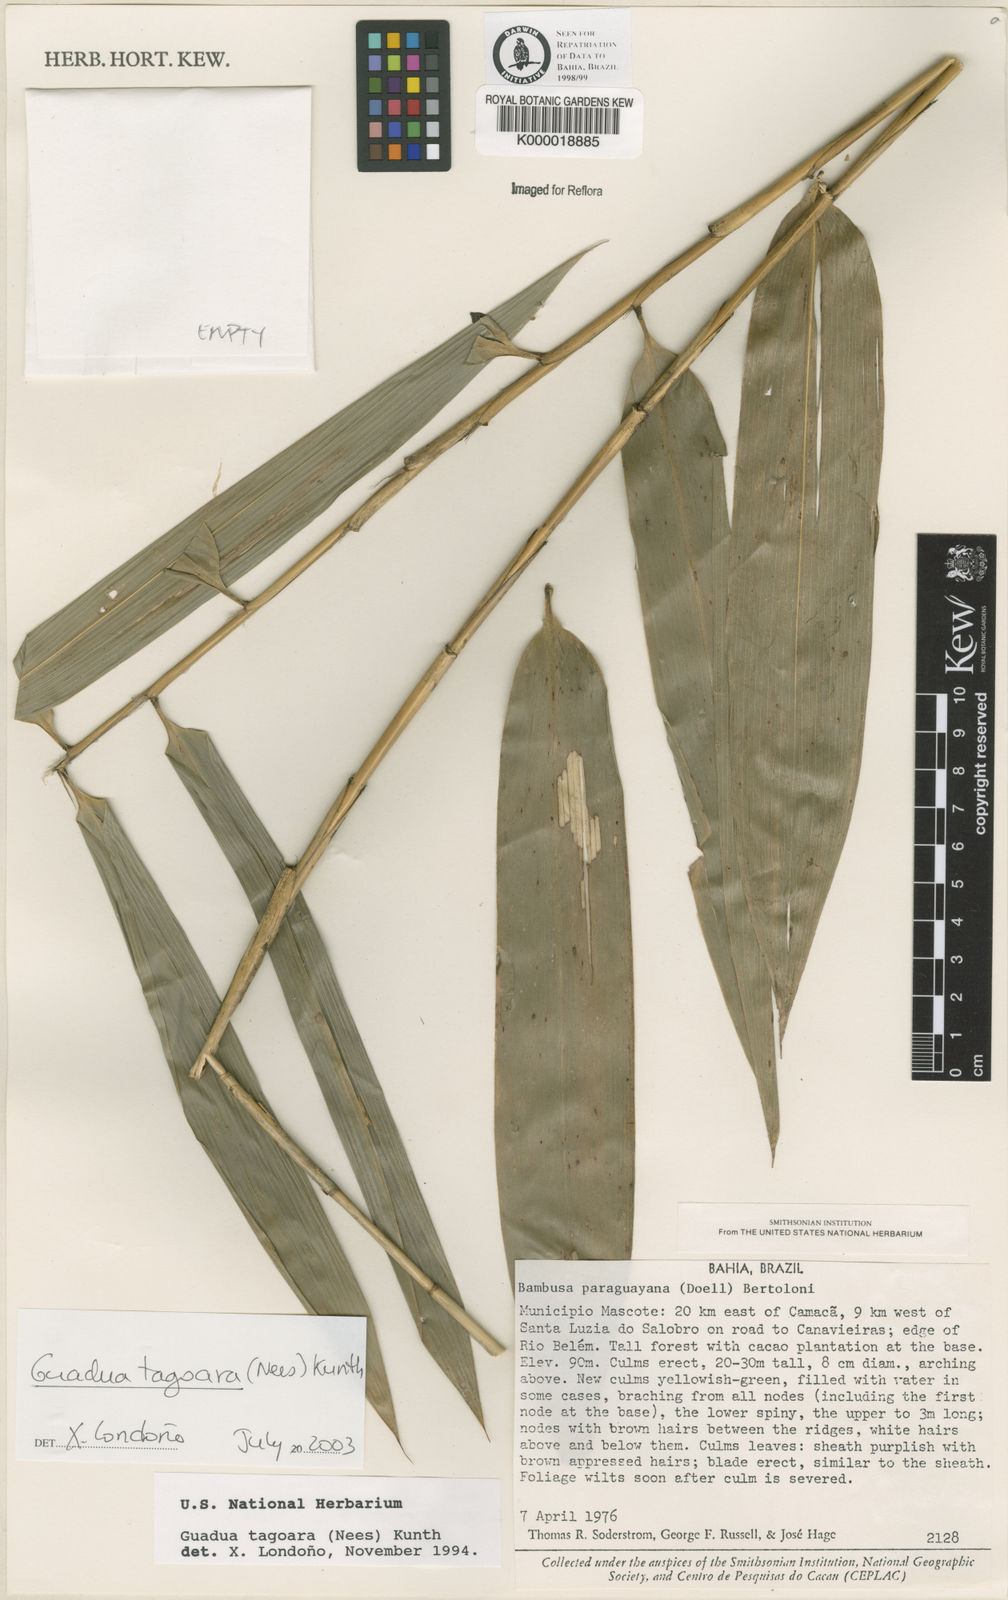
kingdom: Plantae
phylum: Tracheophyta
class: Liliopsida
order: Poales
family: Poaceae
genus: Guadua
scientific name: Guadua tagoara
